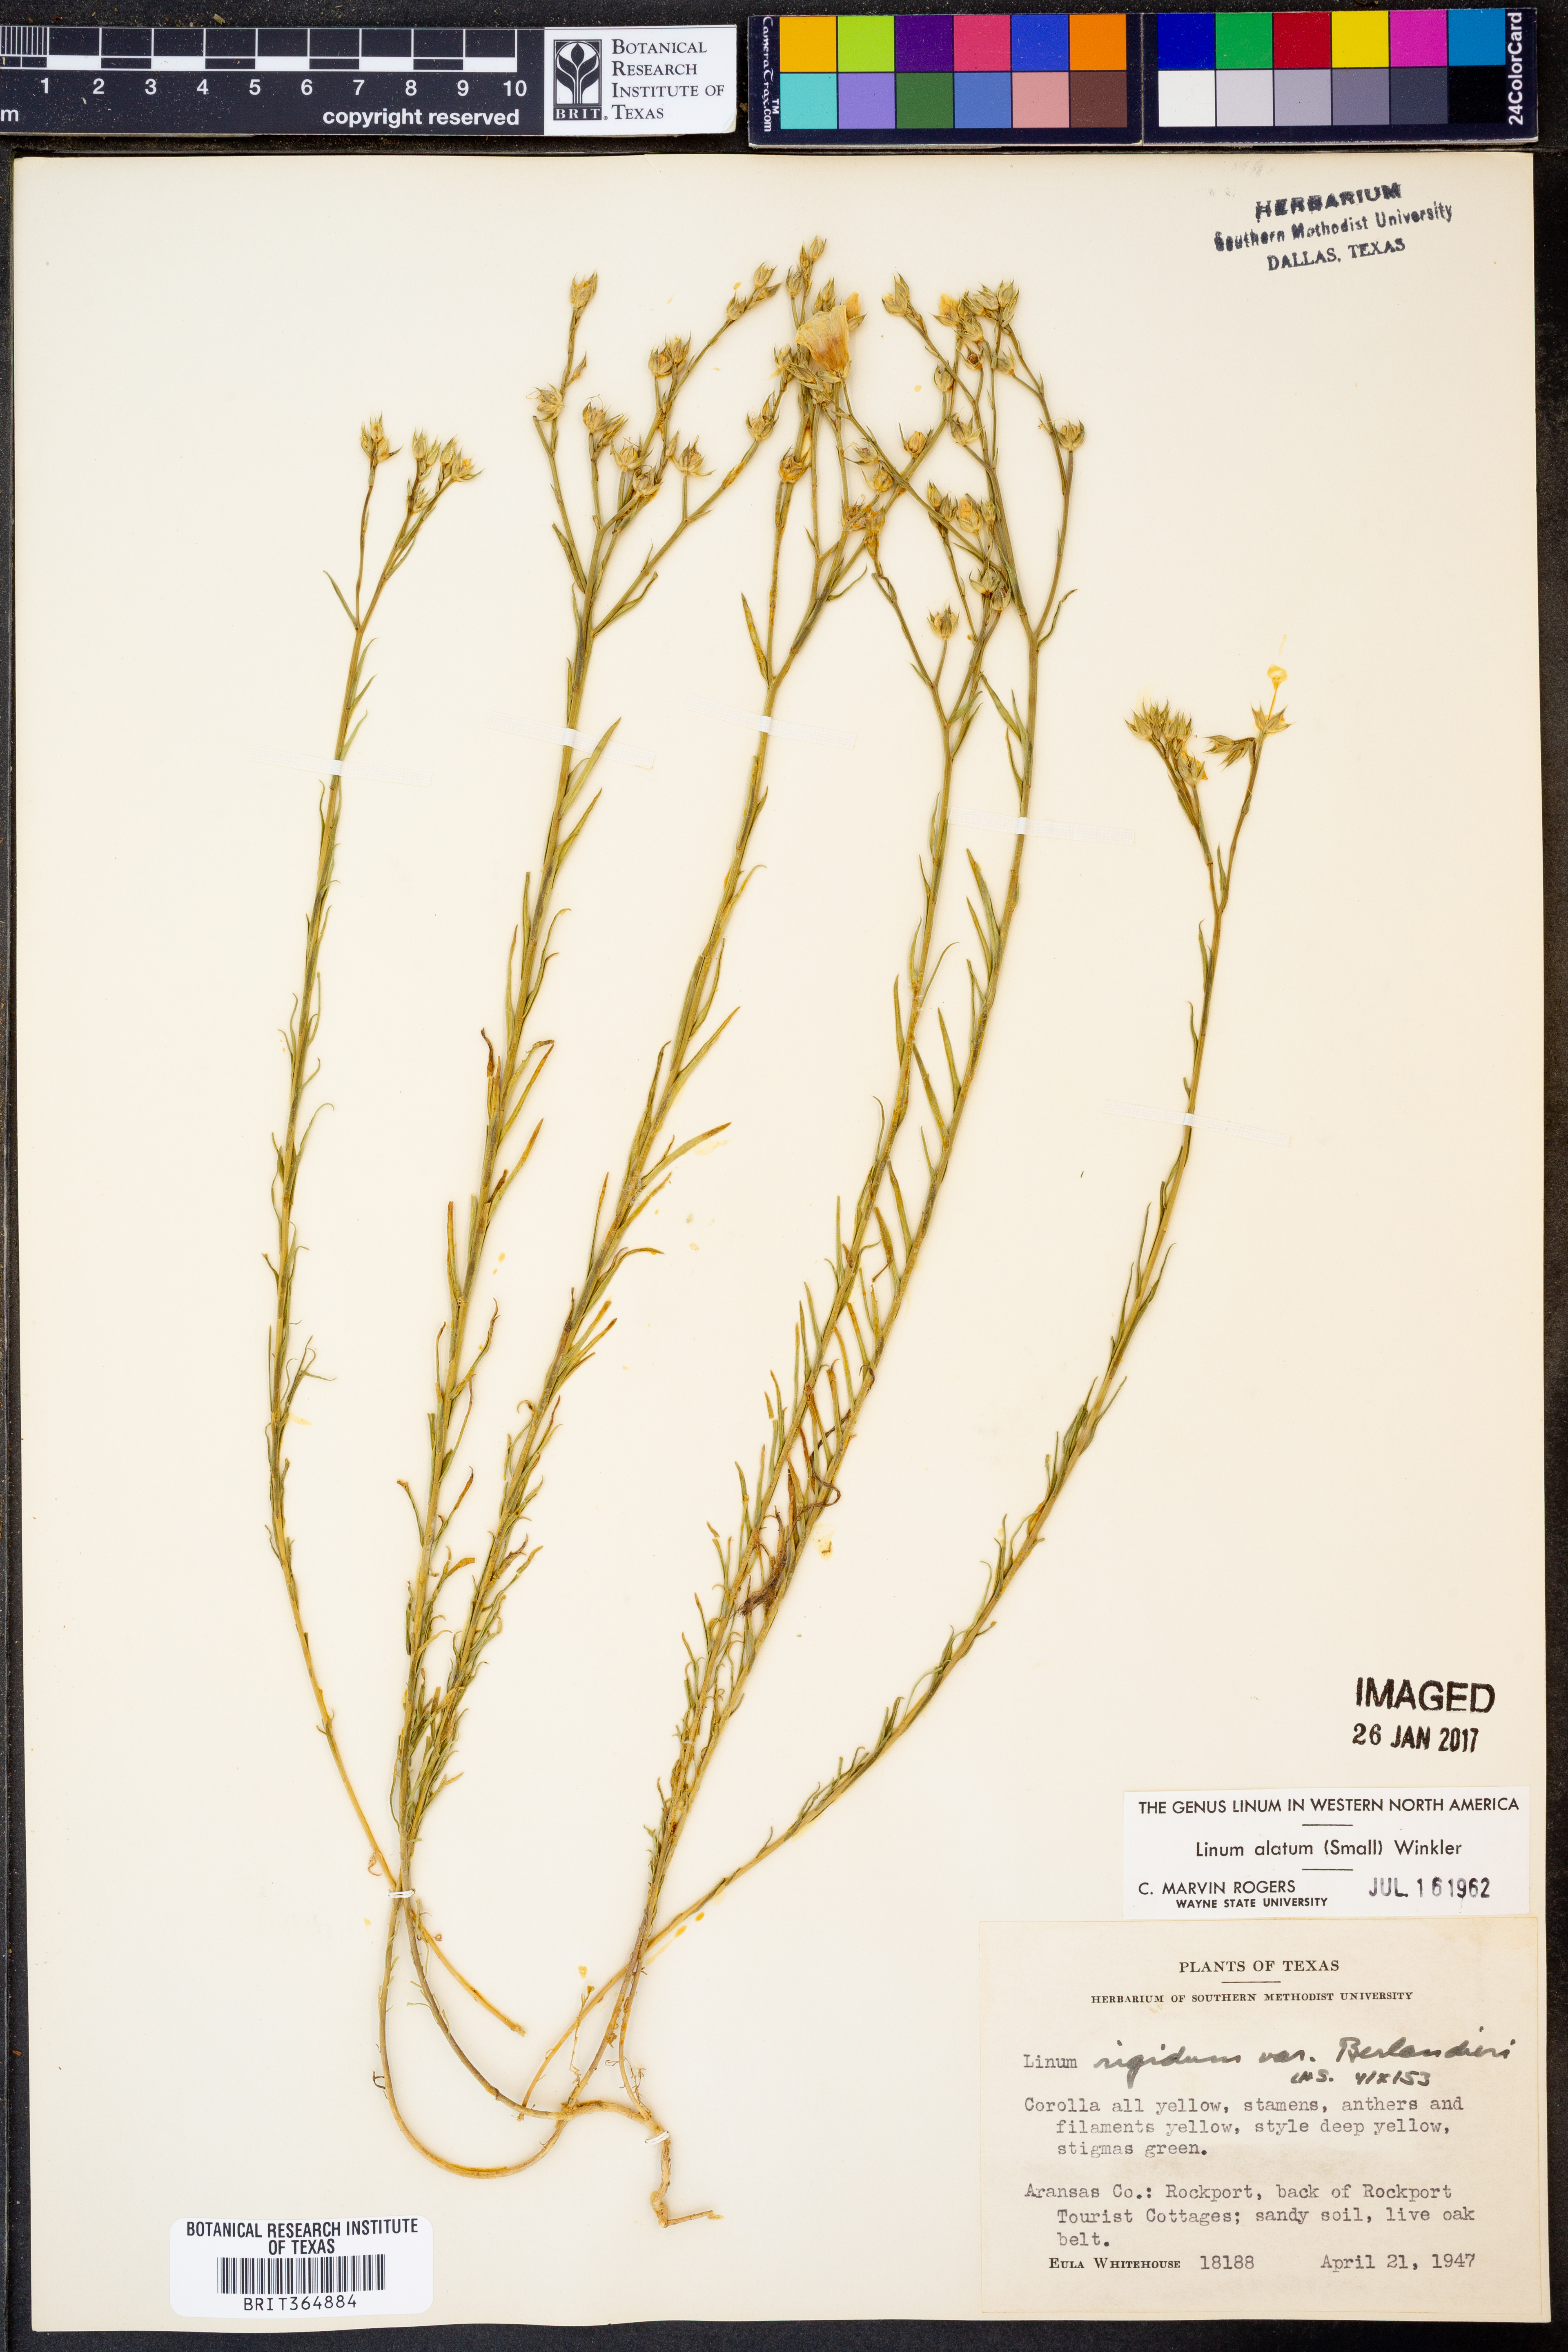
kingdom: Plantae
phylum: Tracheophyta
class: Magnoliopsida
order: Malpighiales
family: Linaceae
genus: Linum
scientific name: Linum alatum
